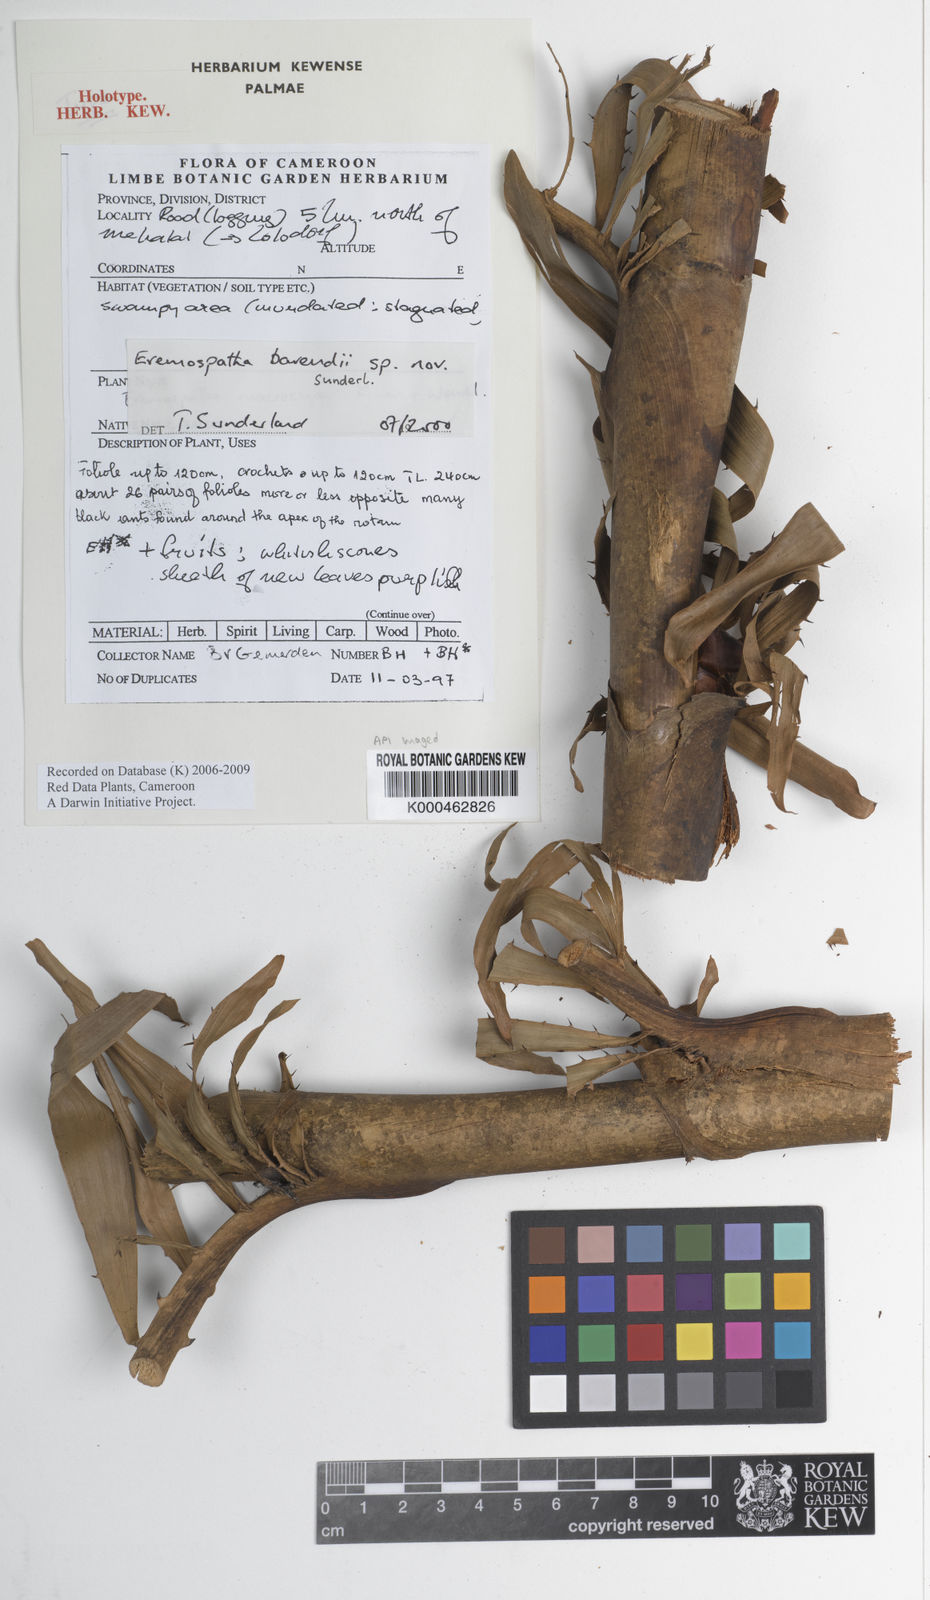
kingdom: Plantae
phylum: Tracheophyta
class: Liliopsida
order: Arecales
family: Arecaceae
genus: Eremospatha
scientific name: Eremospatha barendii
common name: Rattan
